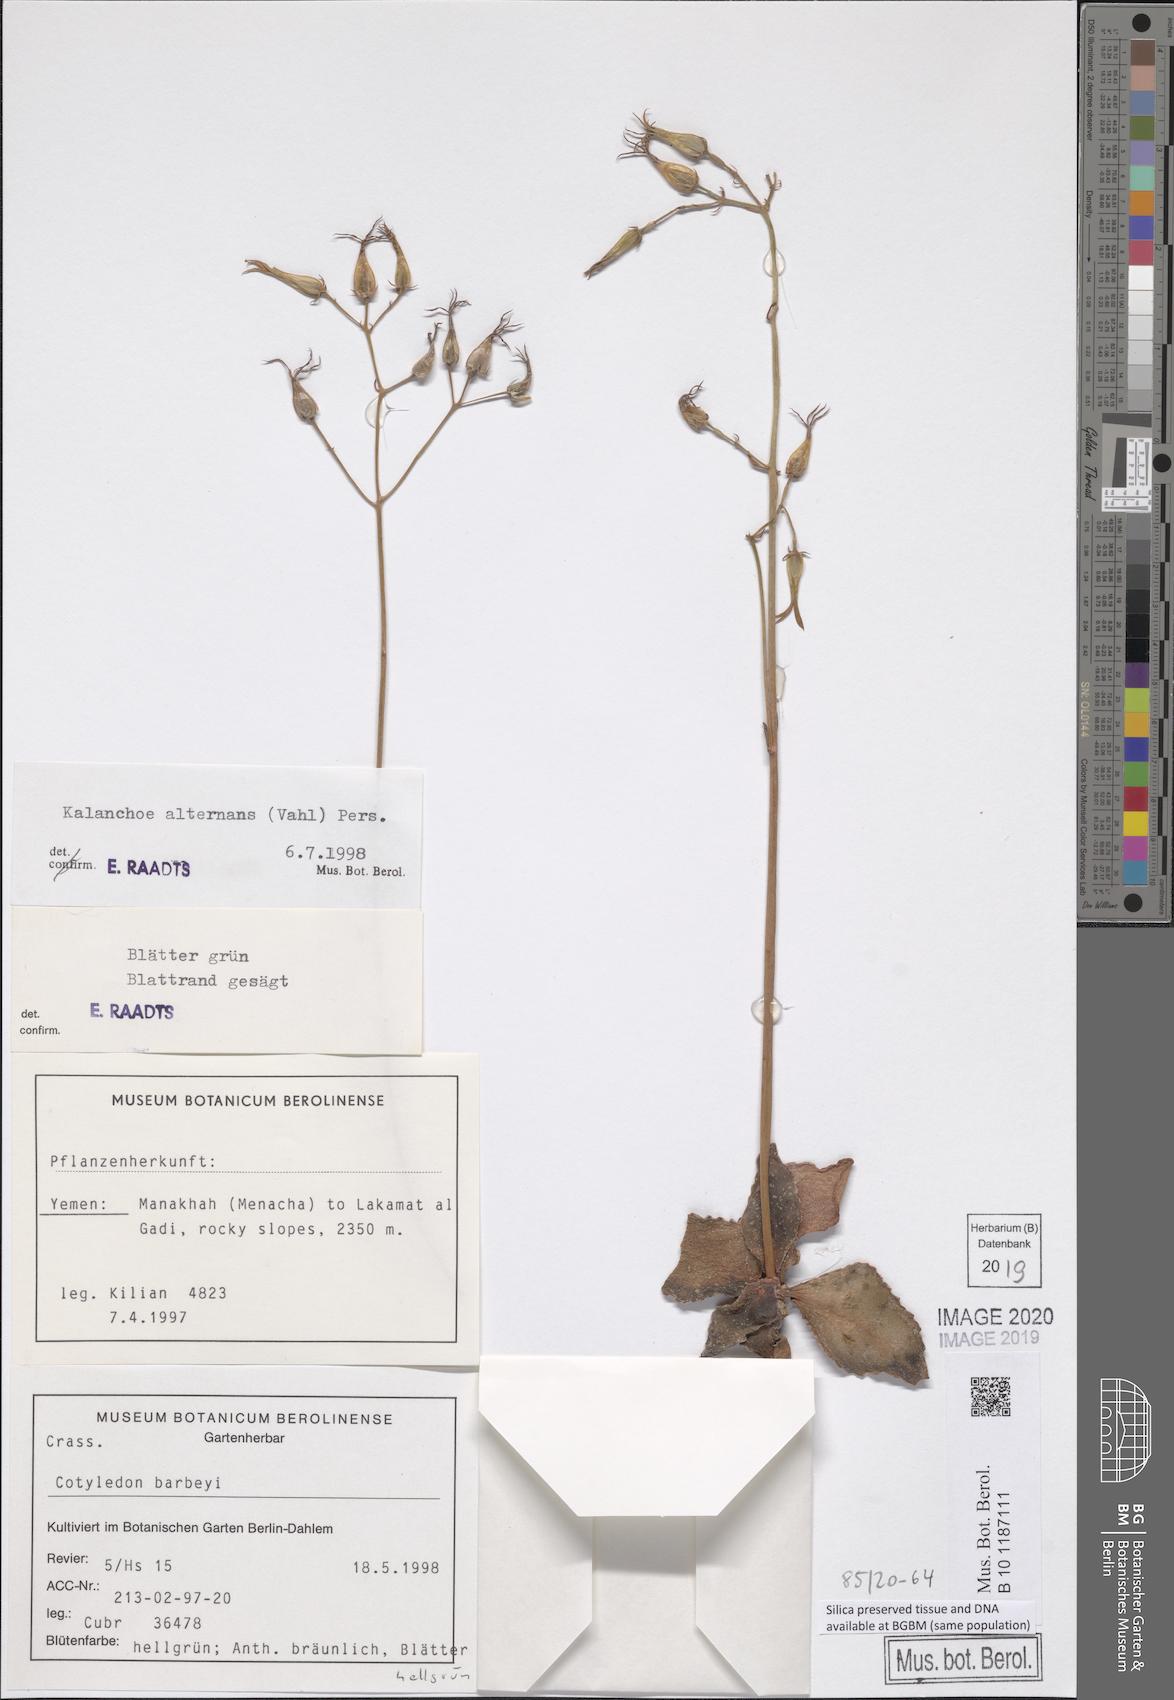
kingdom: Plantae
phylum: Tracheophyta
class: Magnoliopsida
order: Saxifragales
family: Crassulaceae
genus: Kalanchoe
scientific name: Kalanchoe alternans
